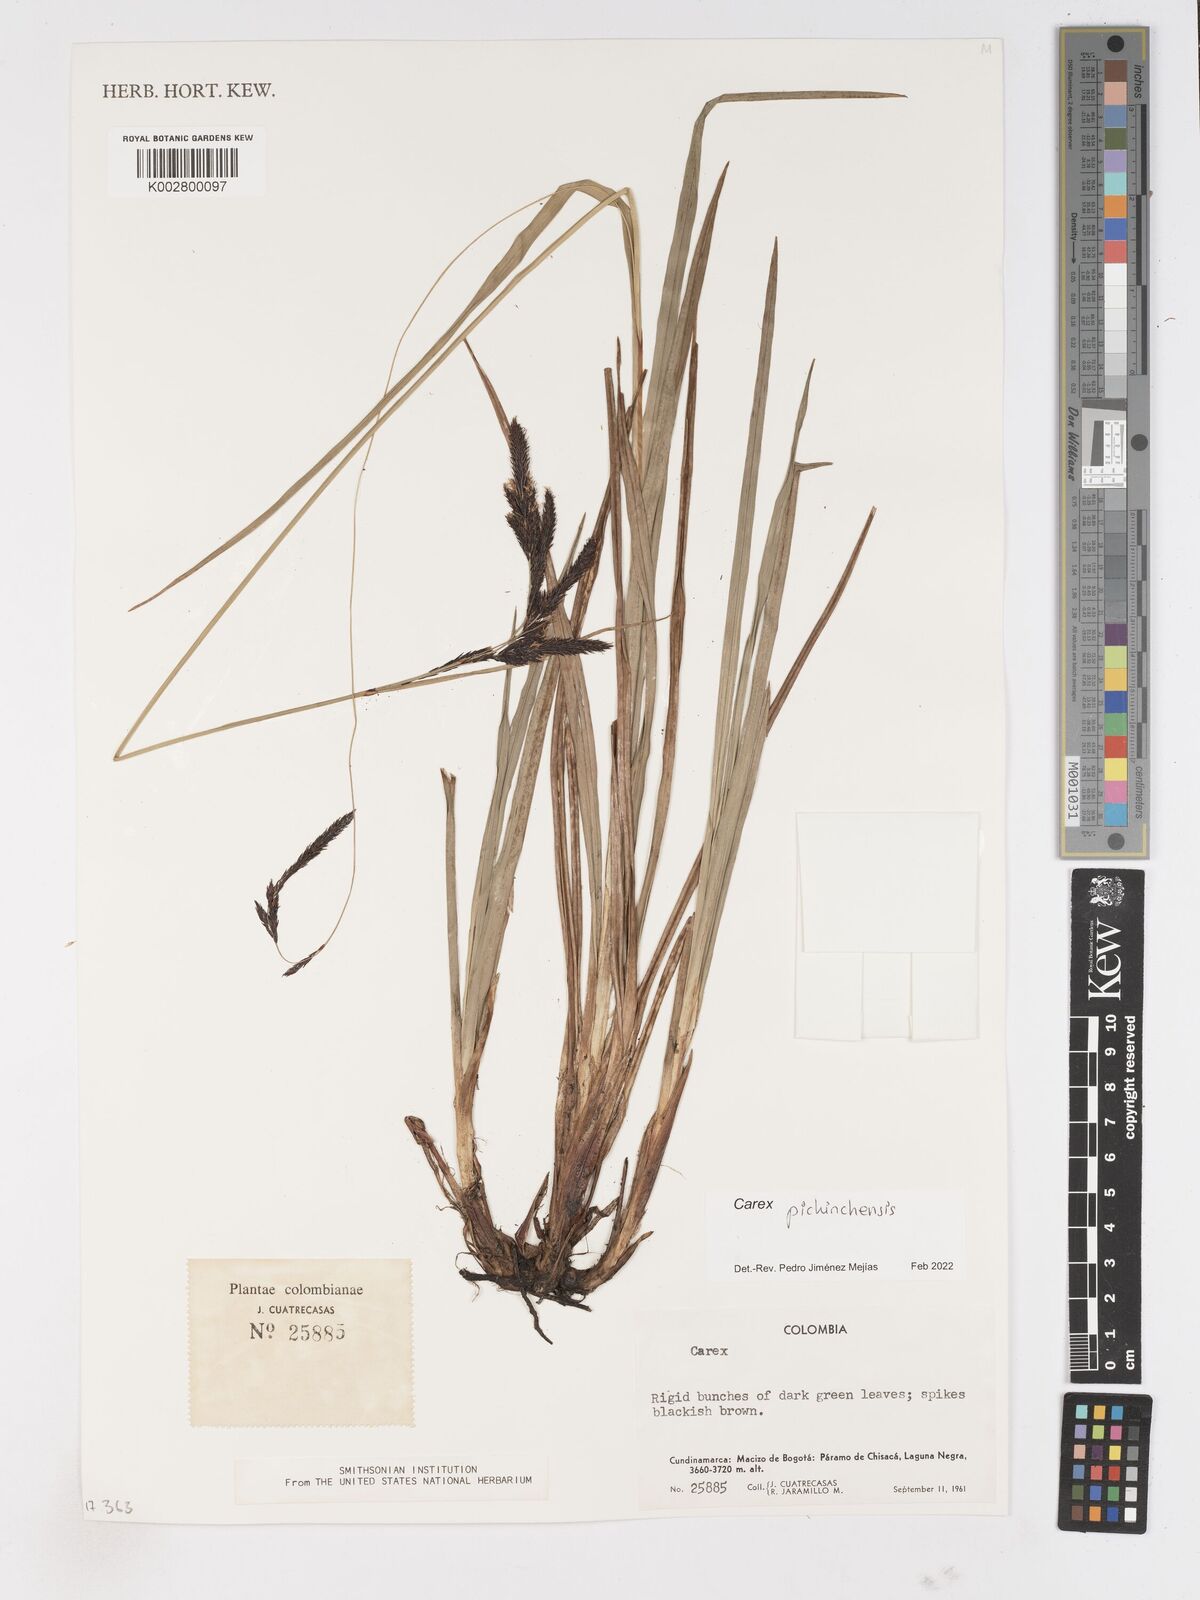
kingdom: Plantae
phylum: Tracheophyta
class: Liliopsida
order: Poales
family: Cyperaceae
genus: Carex
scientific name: Carex pichinchensis
